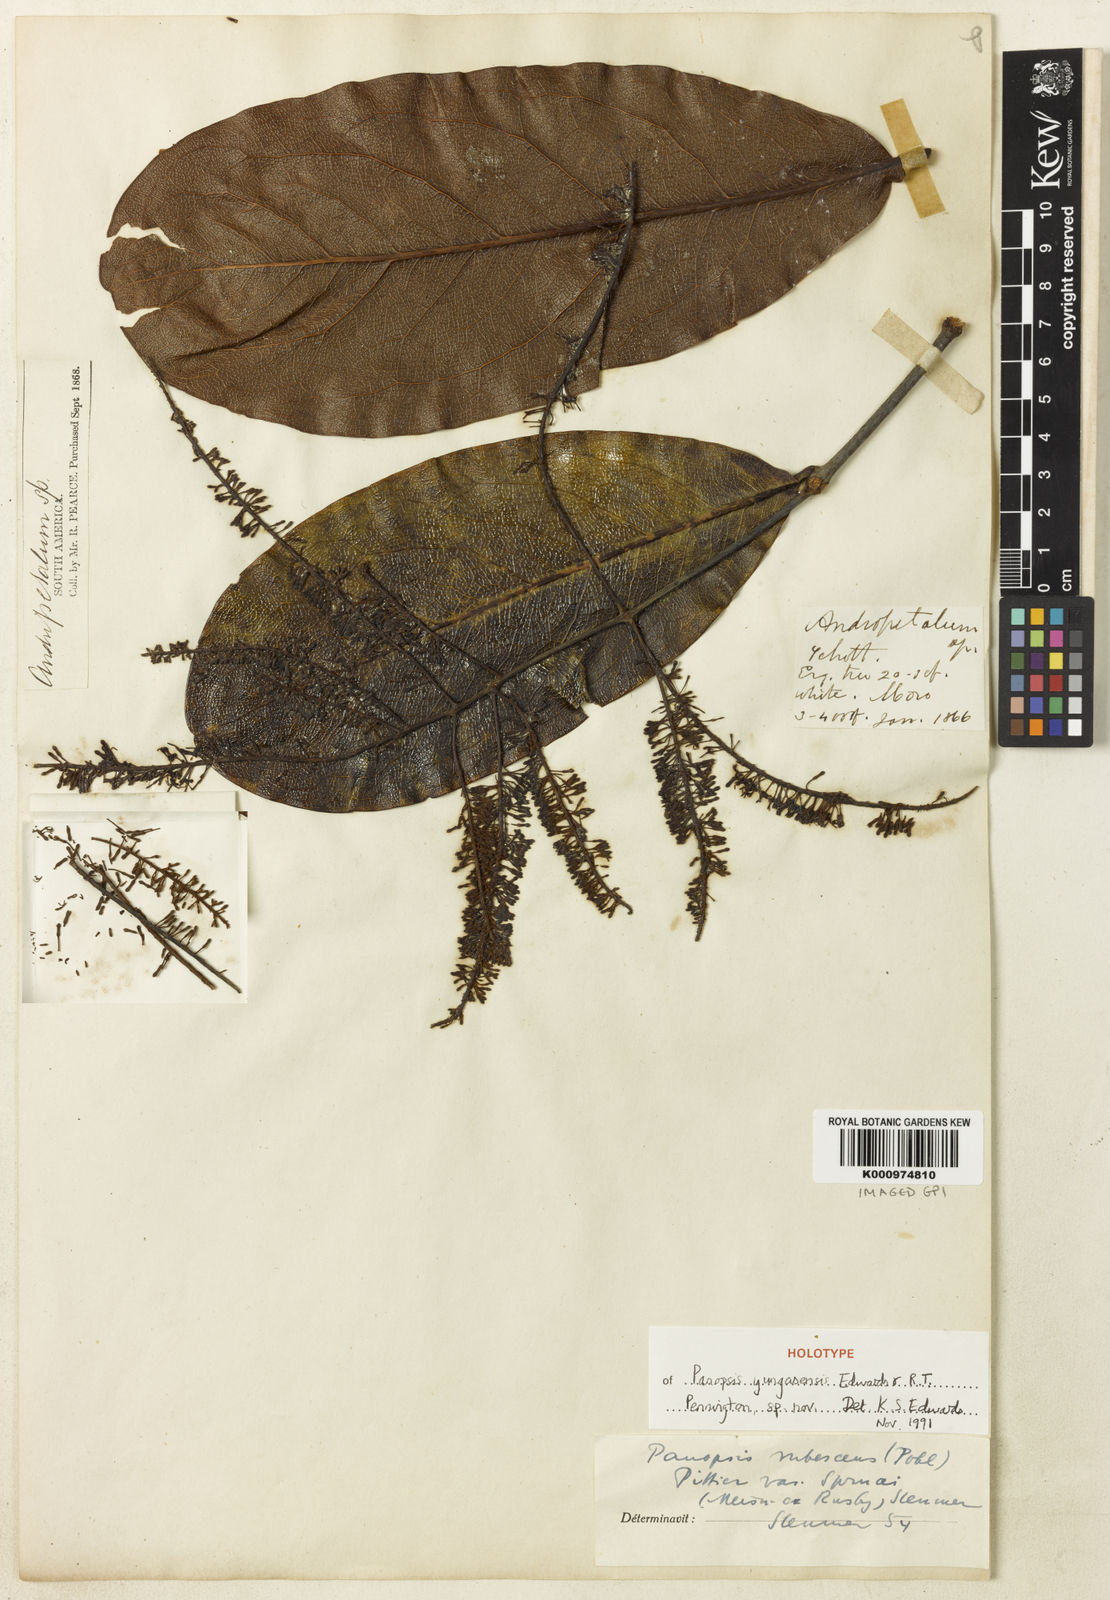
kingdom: Plantae
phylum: Tracheophyta
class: Magnoliopsida
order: Proteales
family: Proteaceae
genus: Panopsis
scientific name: Panopsis yungasensis
